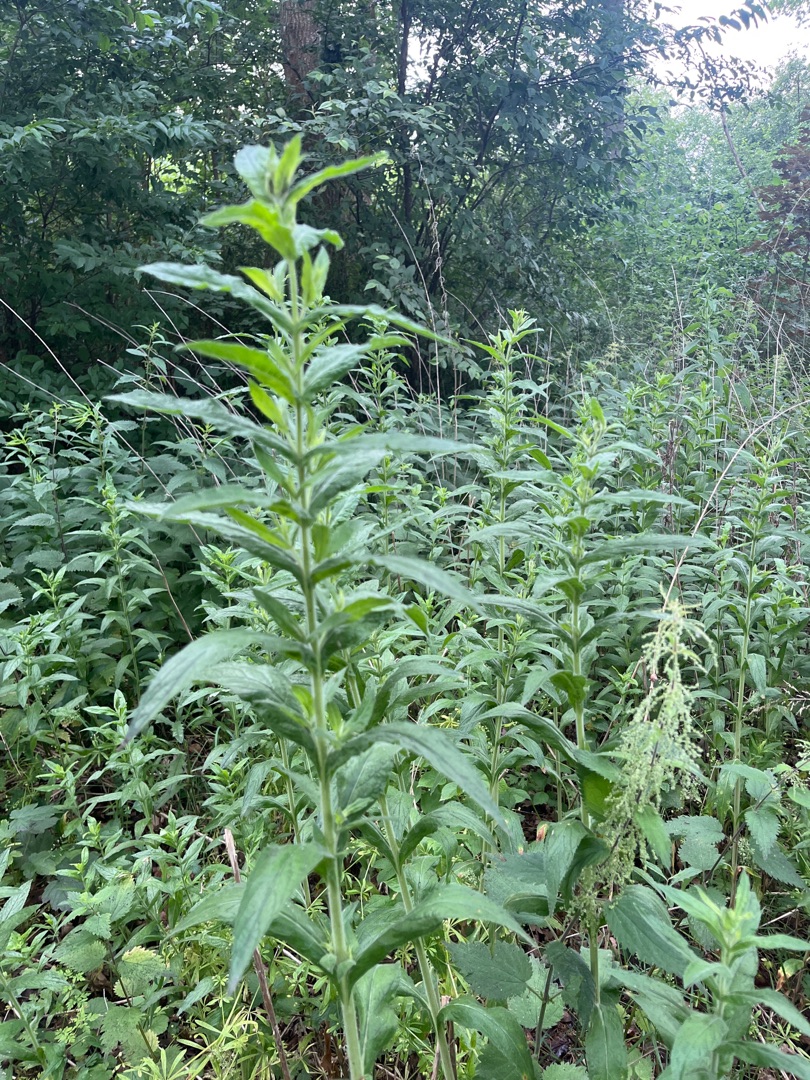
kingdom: Plantae
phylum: Tracheophyta
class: Magnoliopsida
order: Myrtales
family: Onagraceae
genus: Epilobium
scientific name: Epilobium hirsutum
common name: Lådden dueurt
